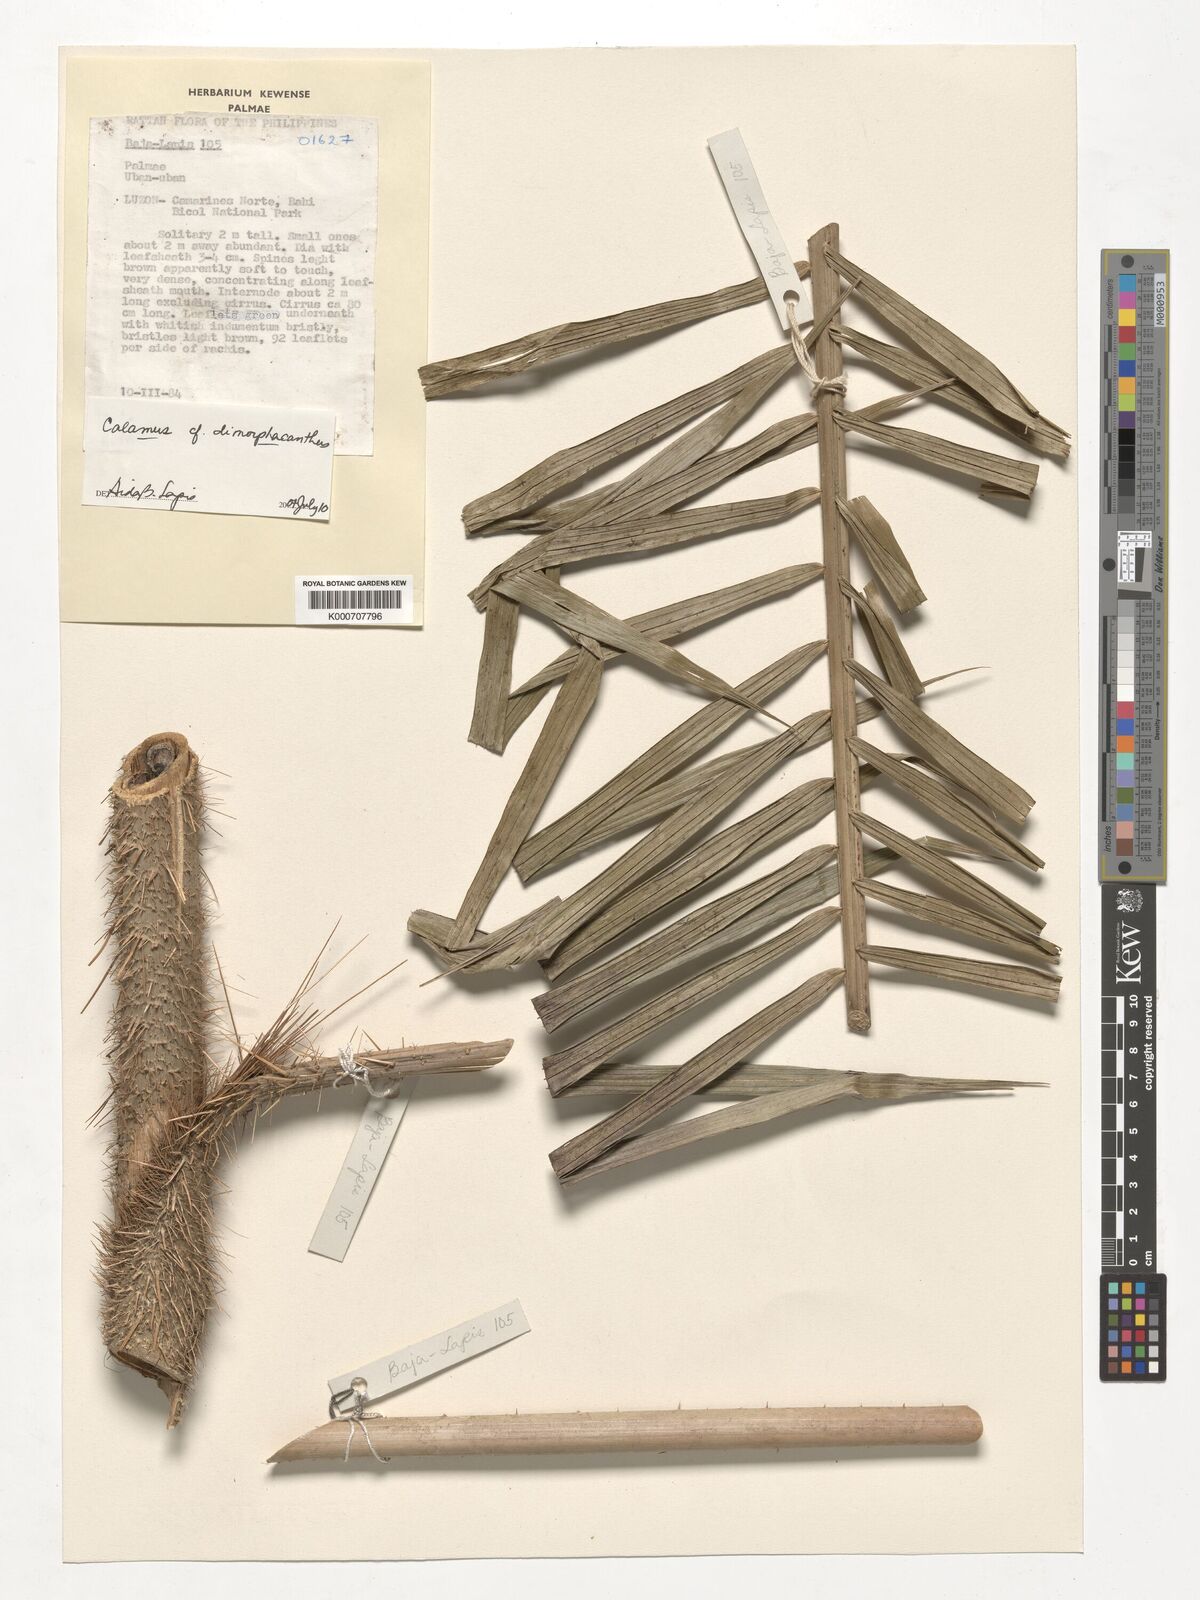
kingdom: Plantae
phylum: Tracheophyta
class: Liliopsida
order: Arecales
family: Arecaceae
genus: Calamus
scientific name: Calamus siphonospathus
